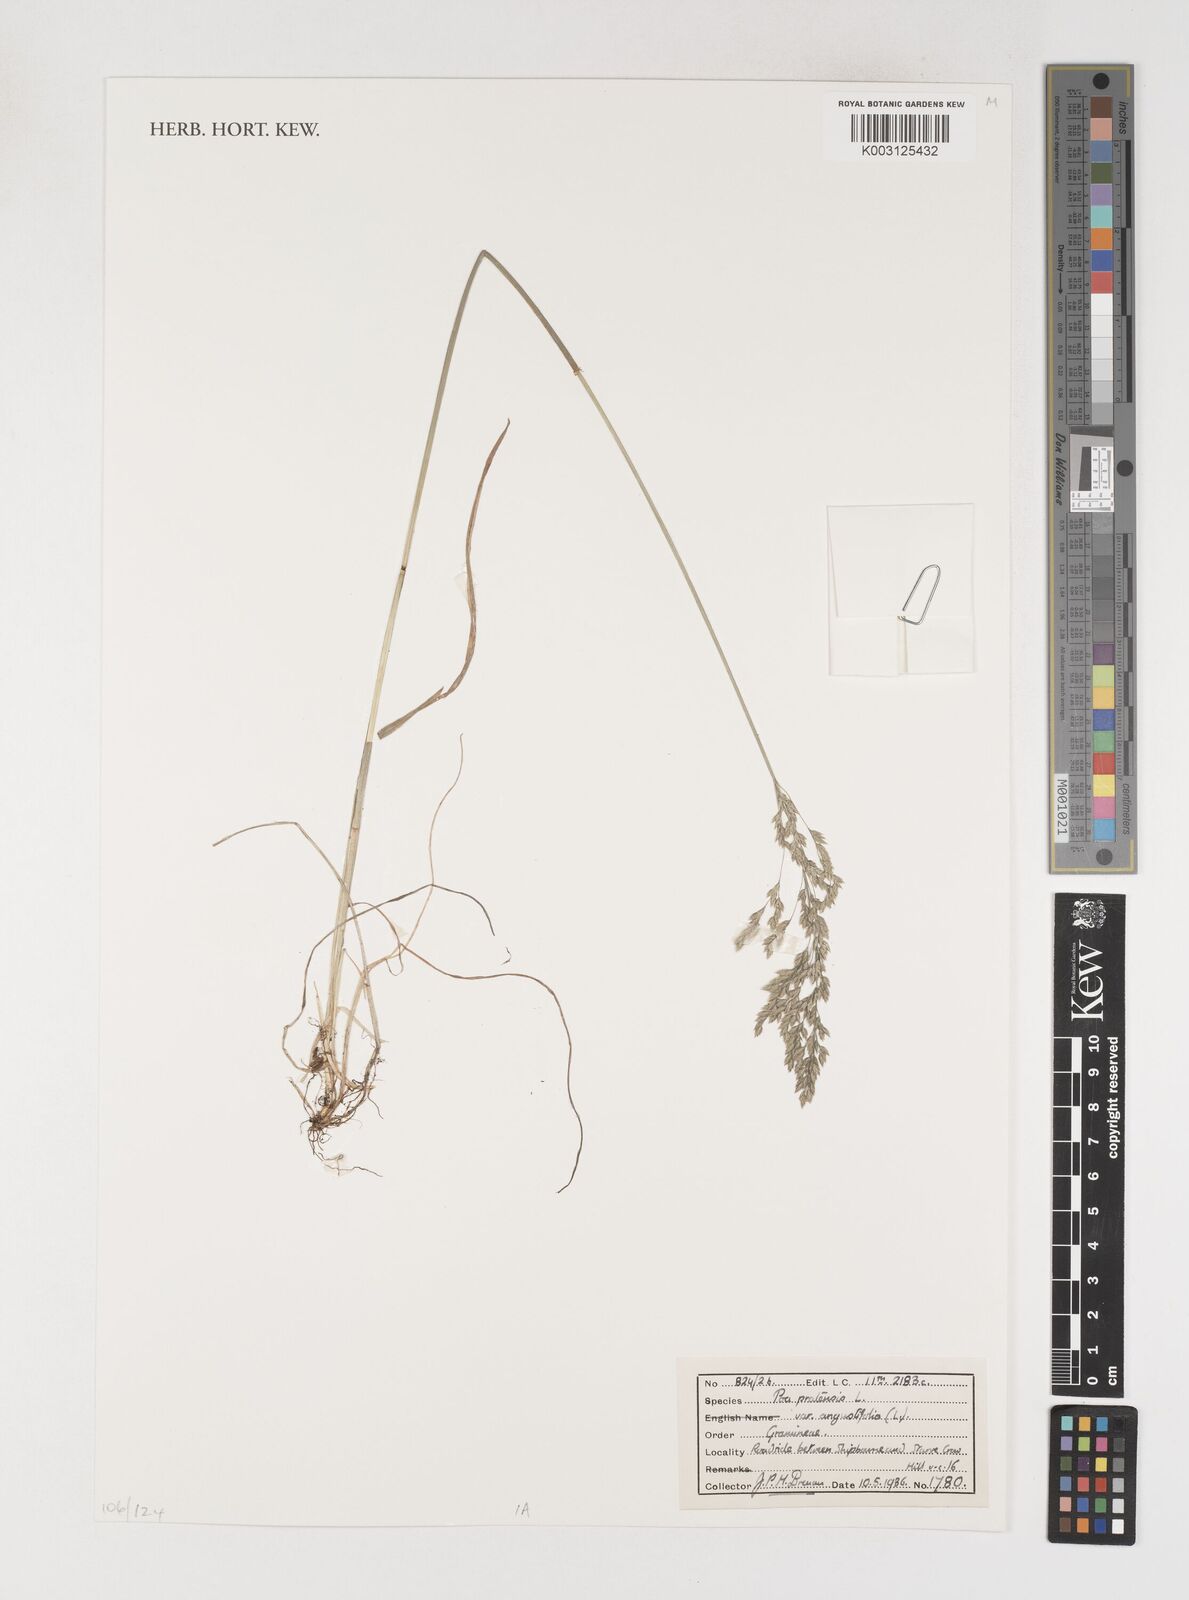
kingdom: Plantae
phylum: Tracheophyta
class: Liliopsida
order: Poales
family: Poaceae
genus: Poa
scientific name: Poa angustifolia
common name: Narrow-leaved meadow-grass
